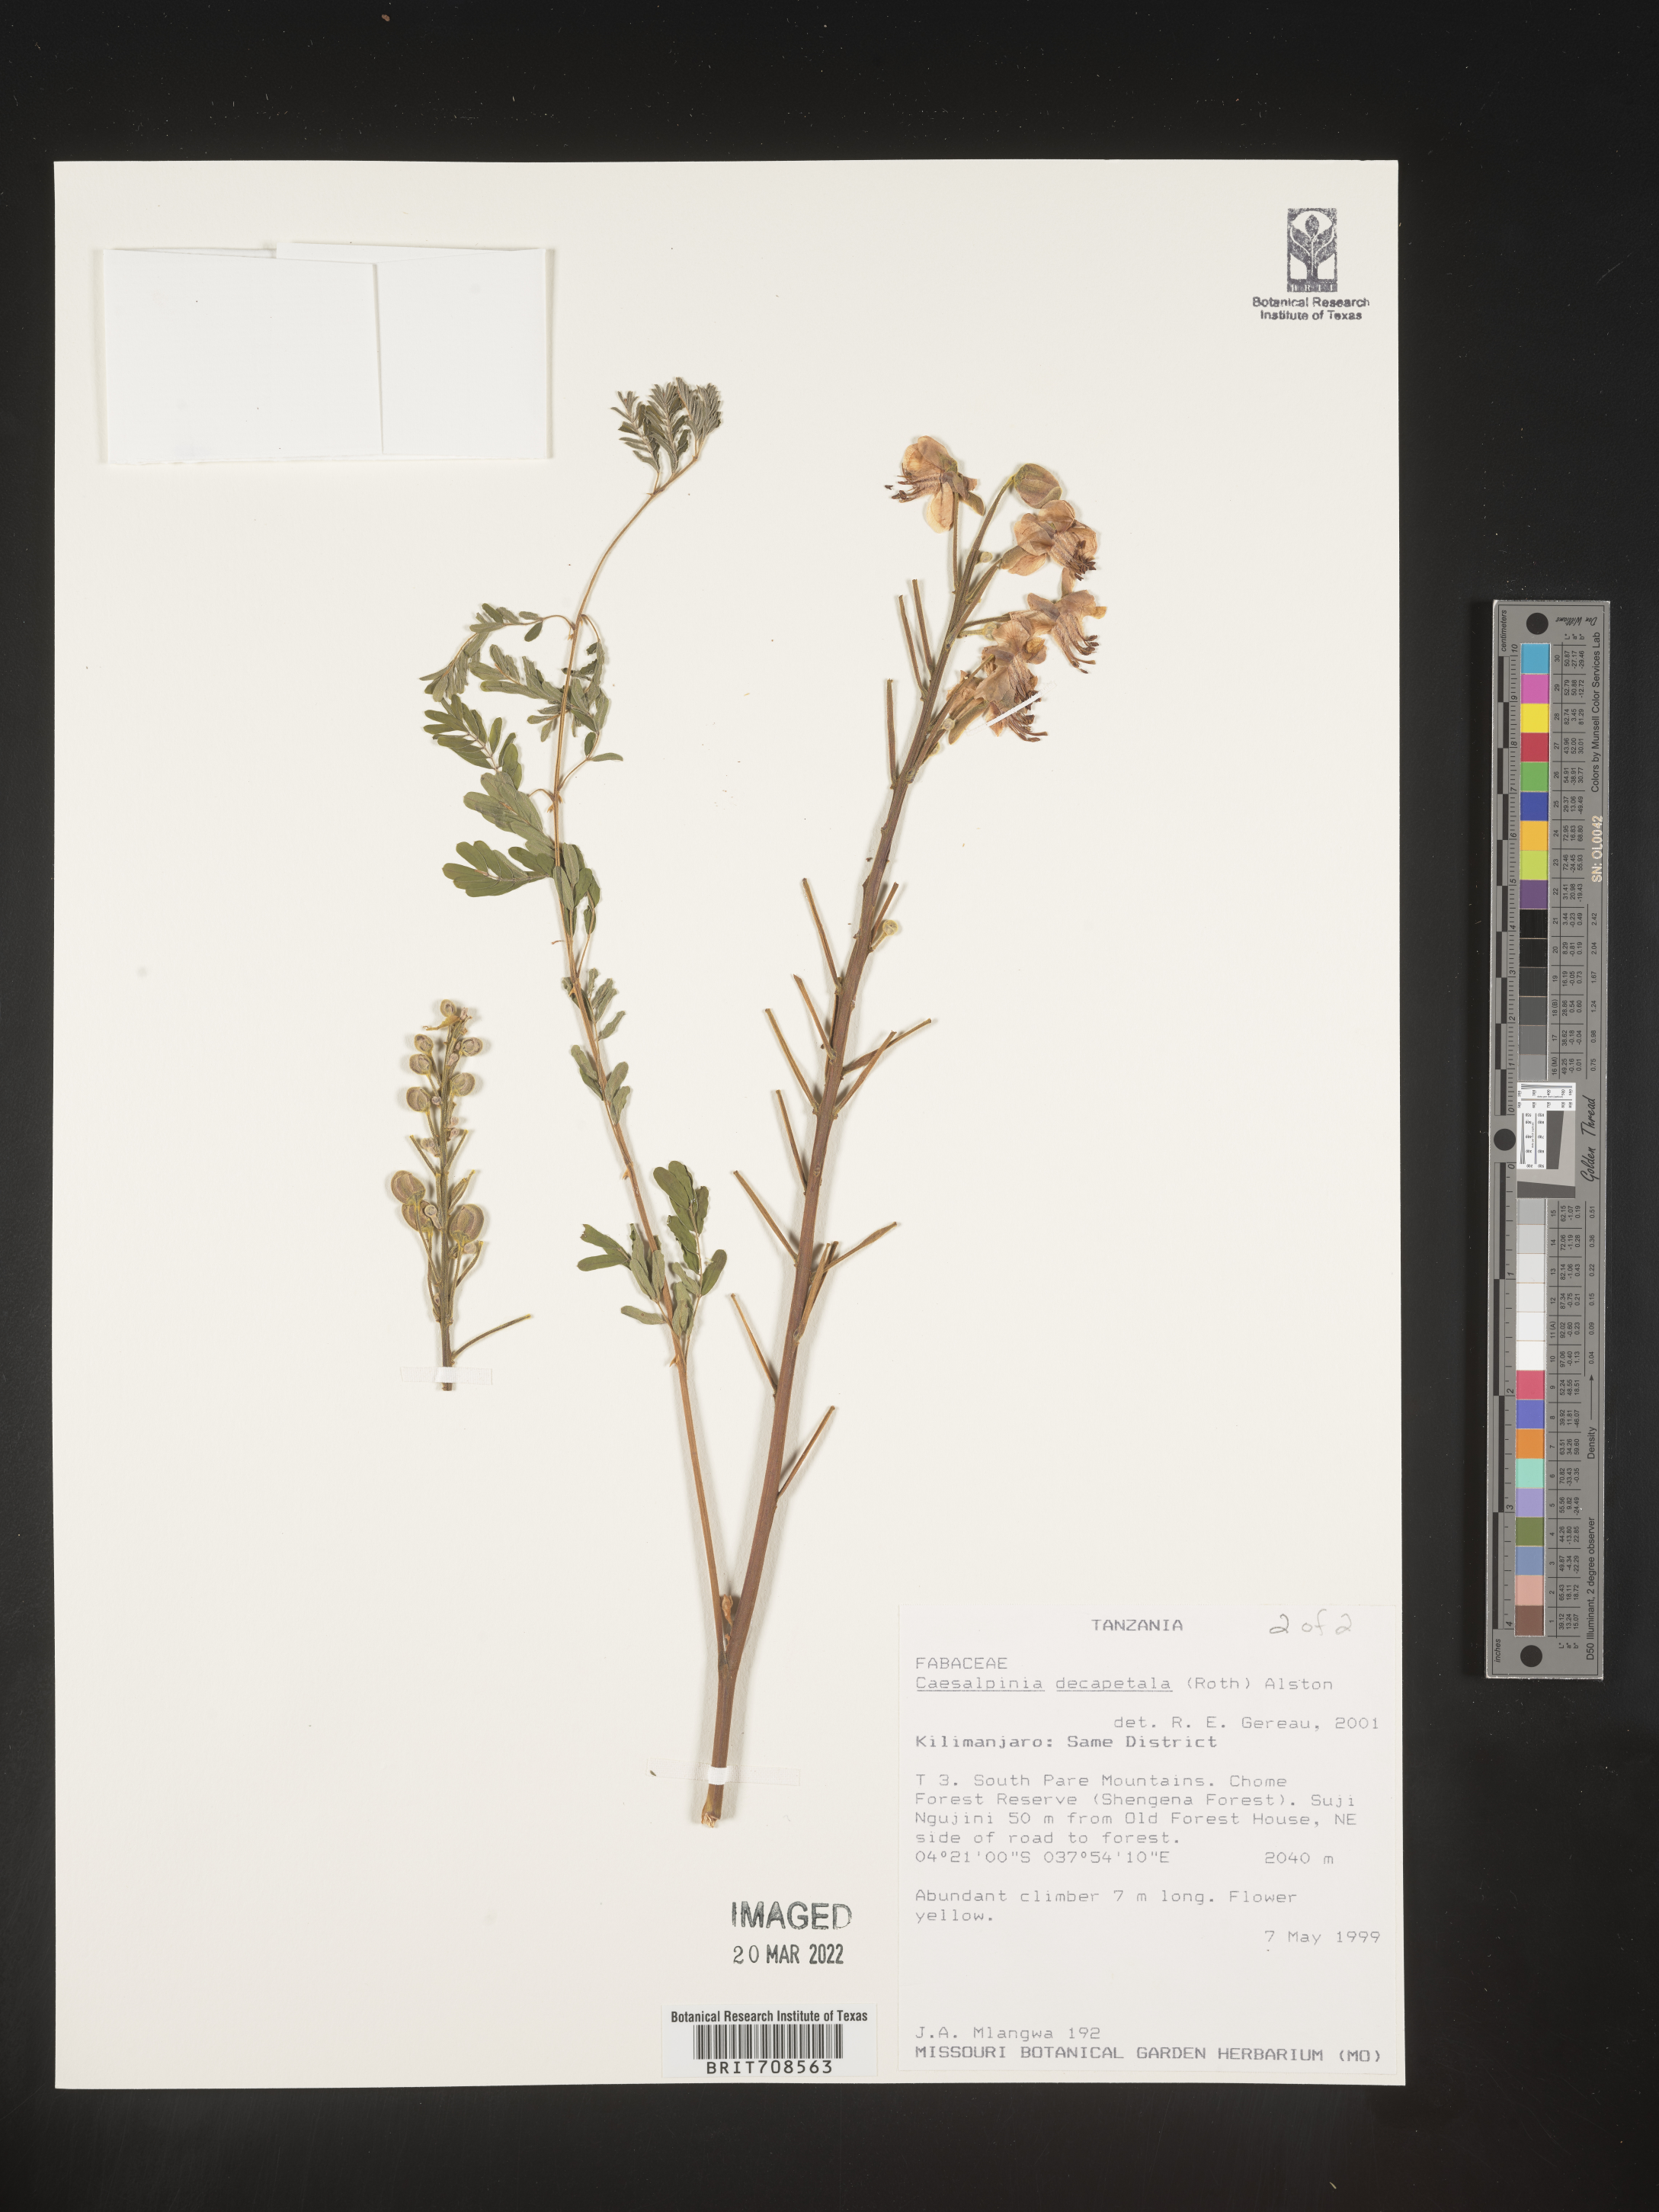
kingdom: Plantae
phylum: Tracheophyta
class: Magnoliopsida
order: Fabales
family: Fabaceae
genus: Caesalpinia
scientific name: Caesalpinia
